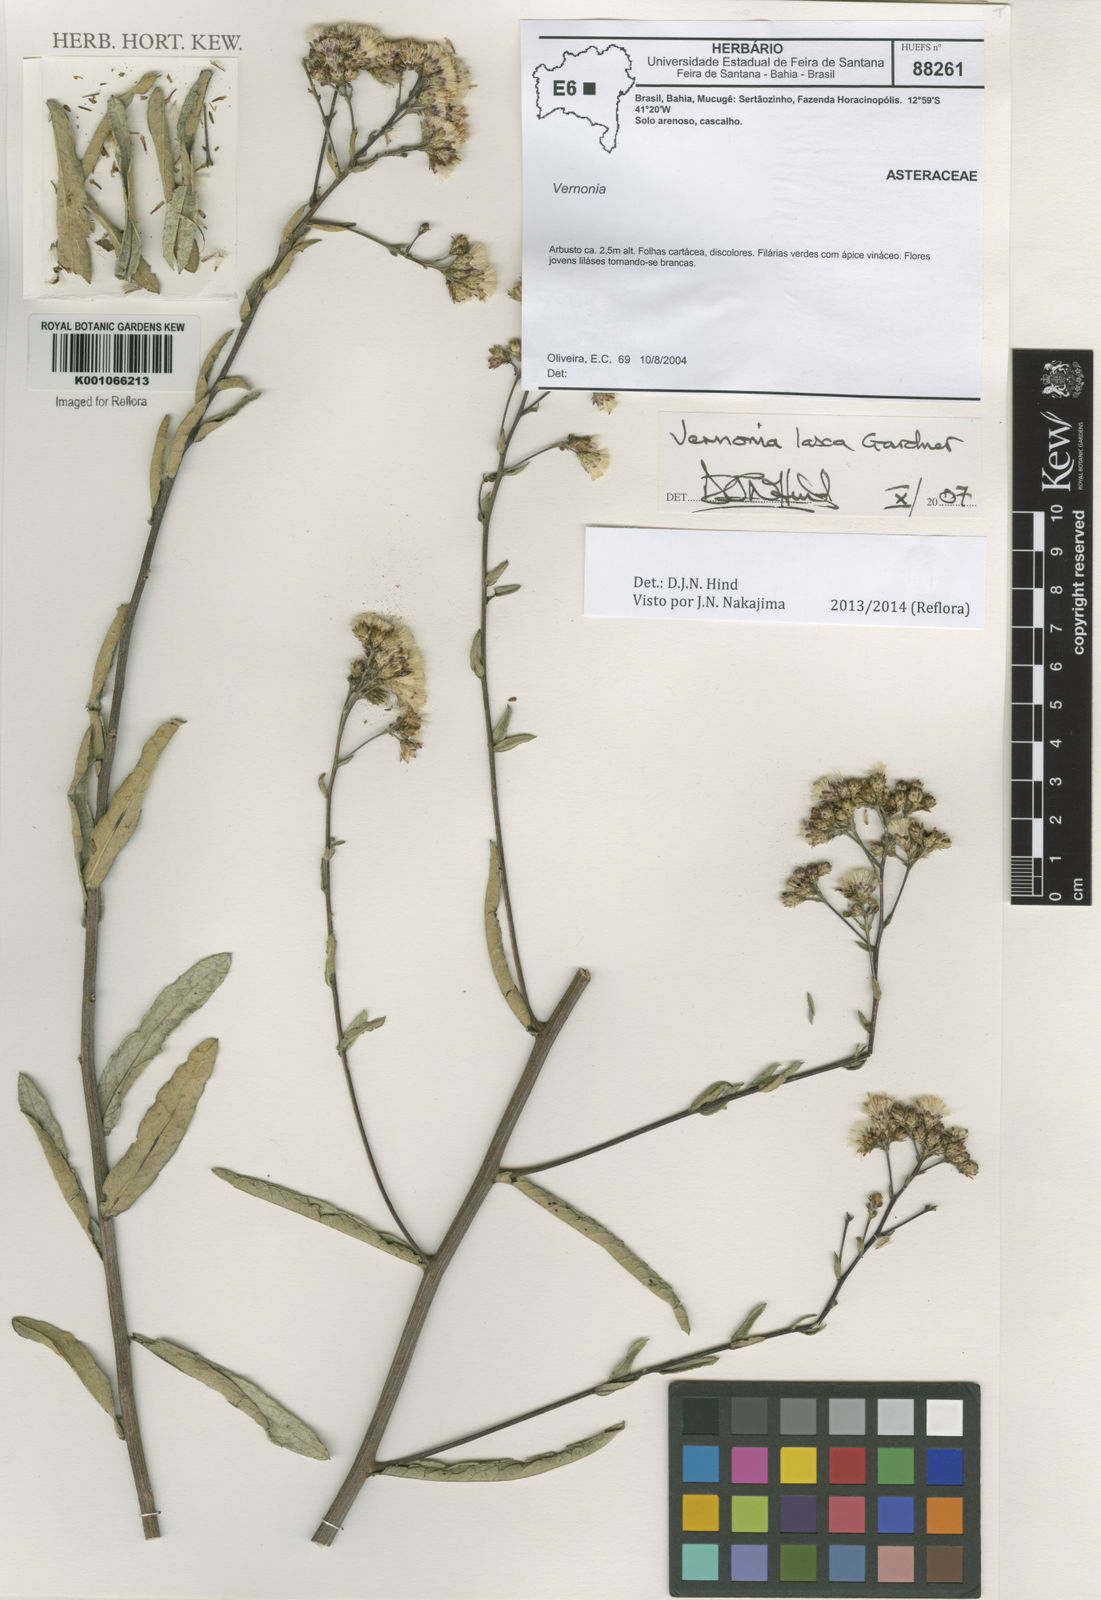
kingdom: Plantae
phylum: Tracheophyta
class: Magnoliopsida
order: Asterales
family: Asteraceae
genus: Vernonanthura
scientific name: Vernonanthura laxa
